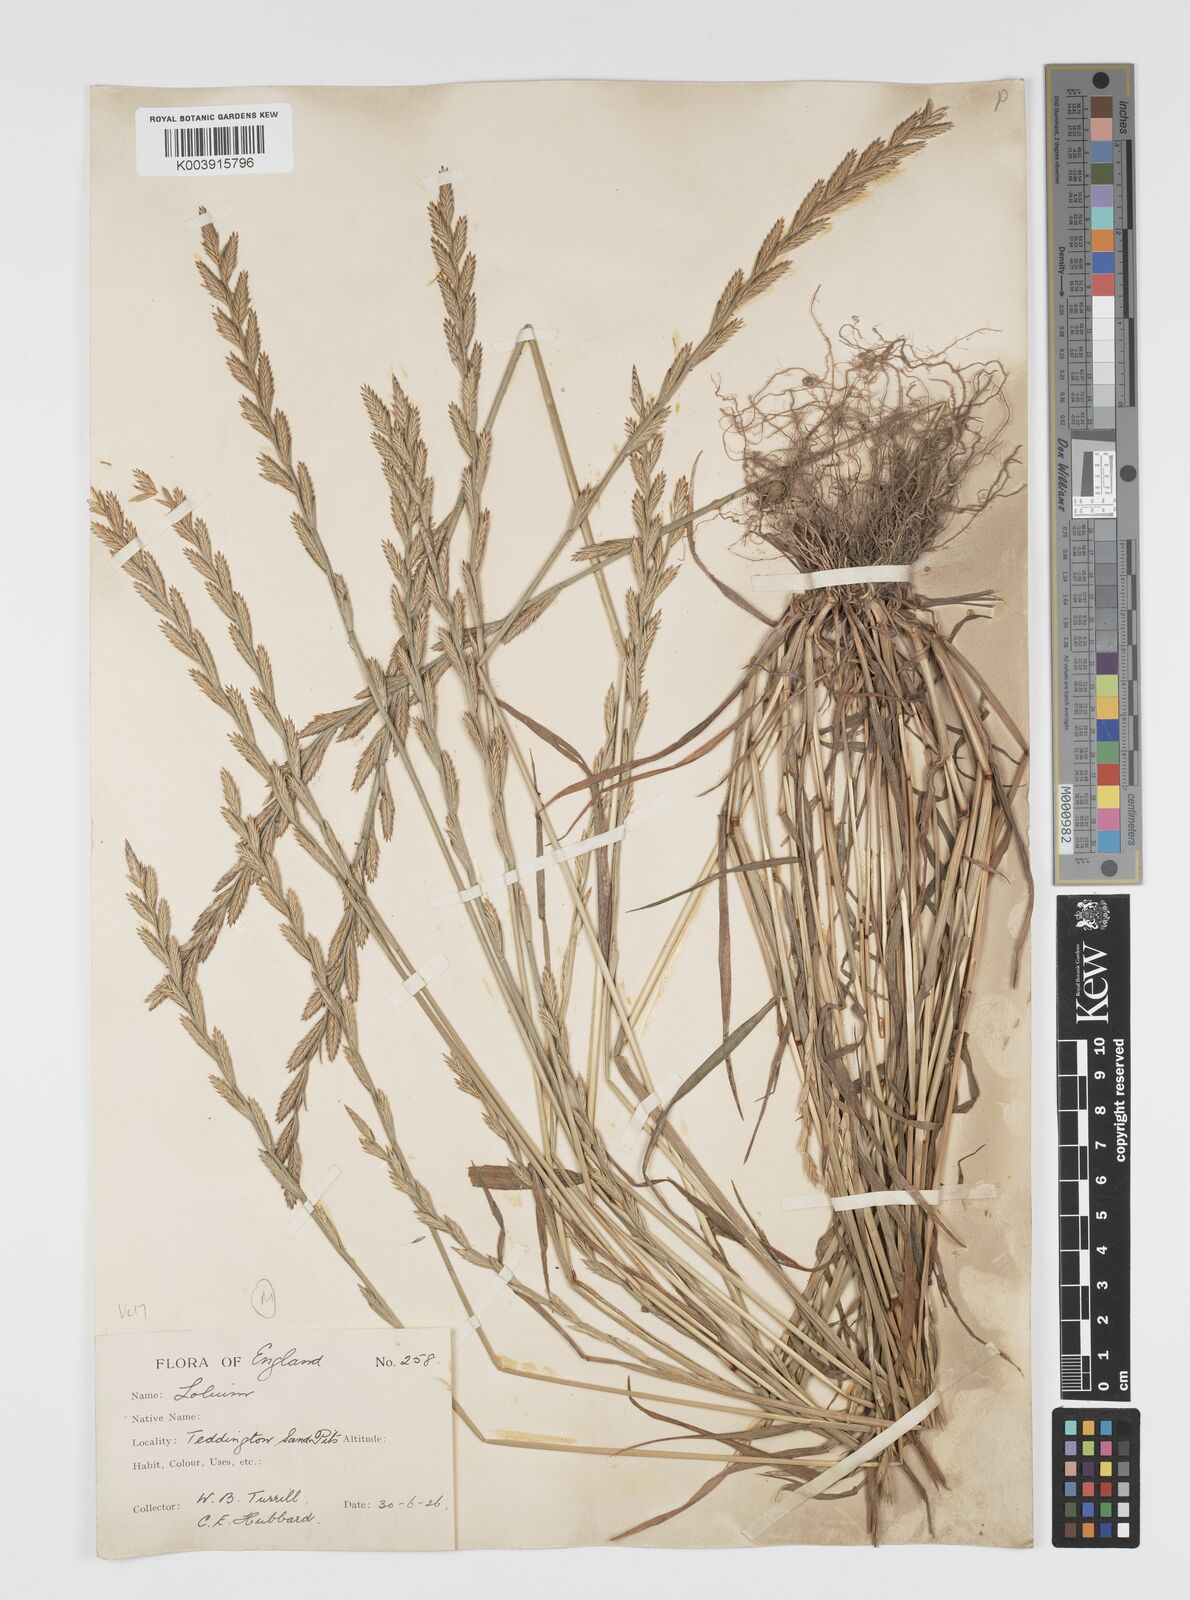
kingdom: Plantae
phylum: Tracheophyta
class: Liliopsida
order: Poales
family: Poaceae
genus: Lolium
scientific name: Lolium multiflorum
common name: Annual ryegrass
